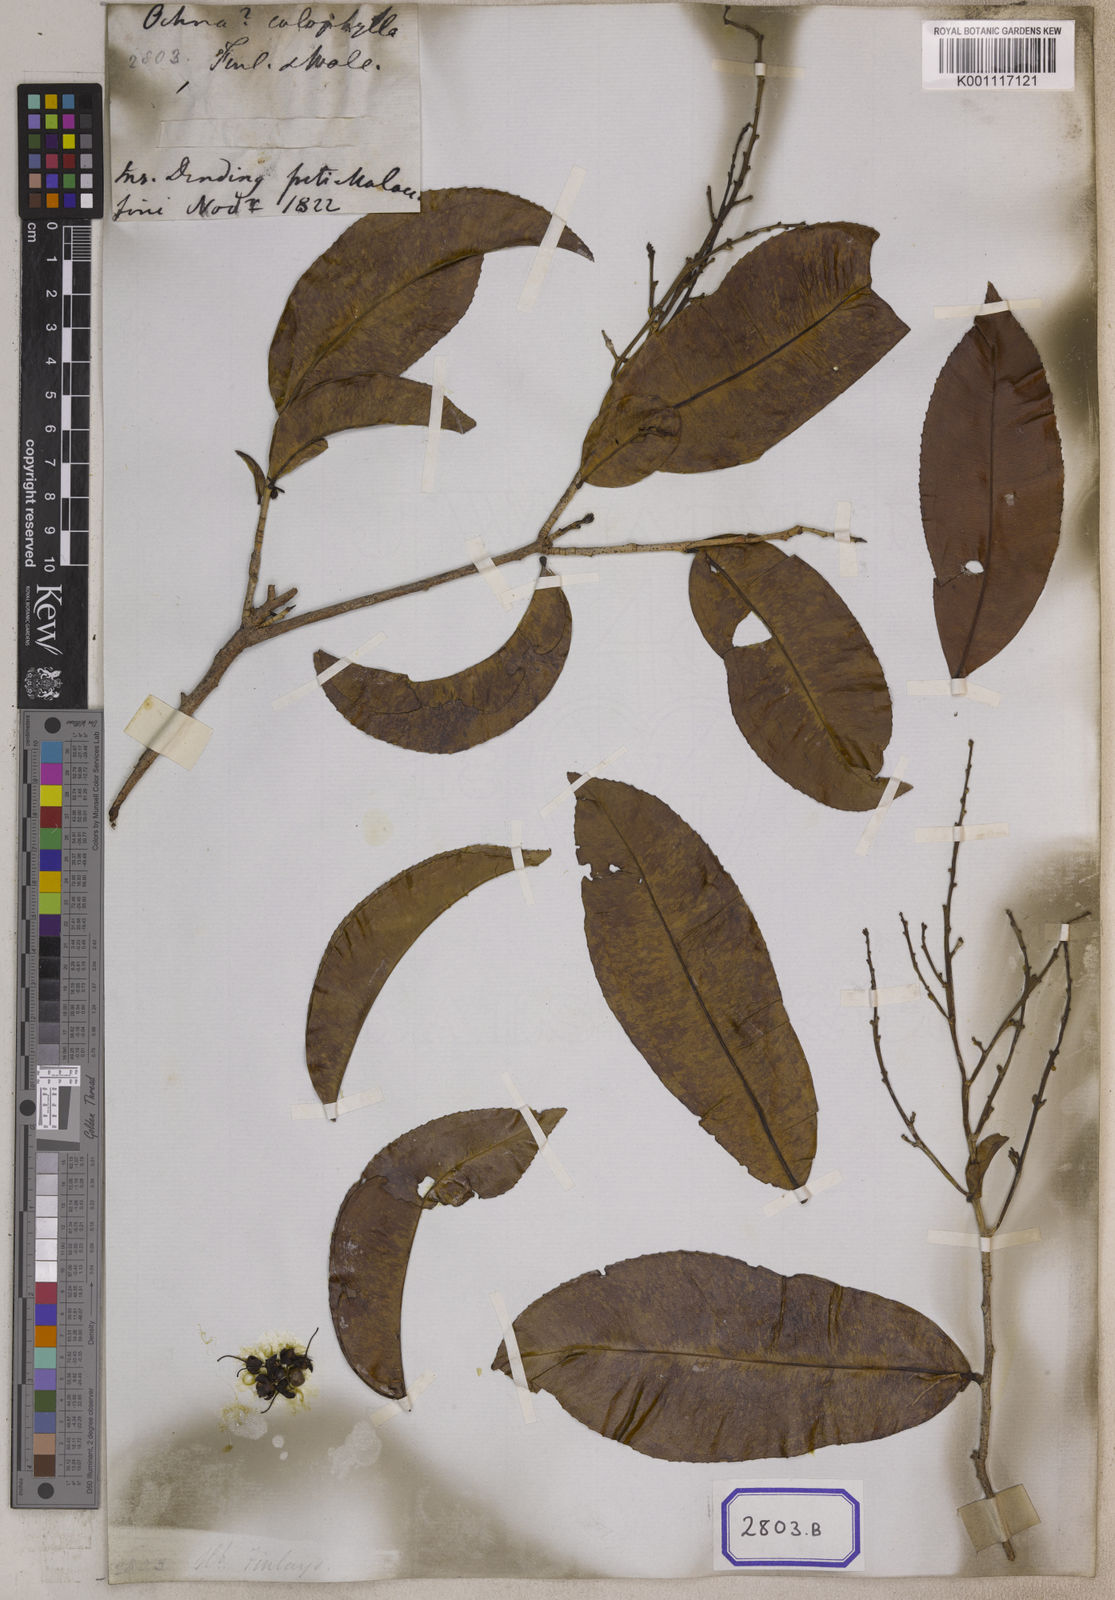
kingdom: Plantae
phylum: Tracheophyta
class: Magnoliopsida
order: Malpighiales
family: Ochnaceae
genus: Gomphia
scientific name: Gomphia serrata
